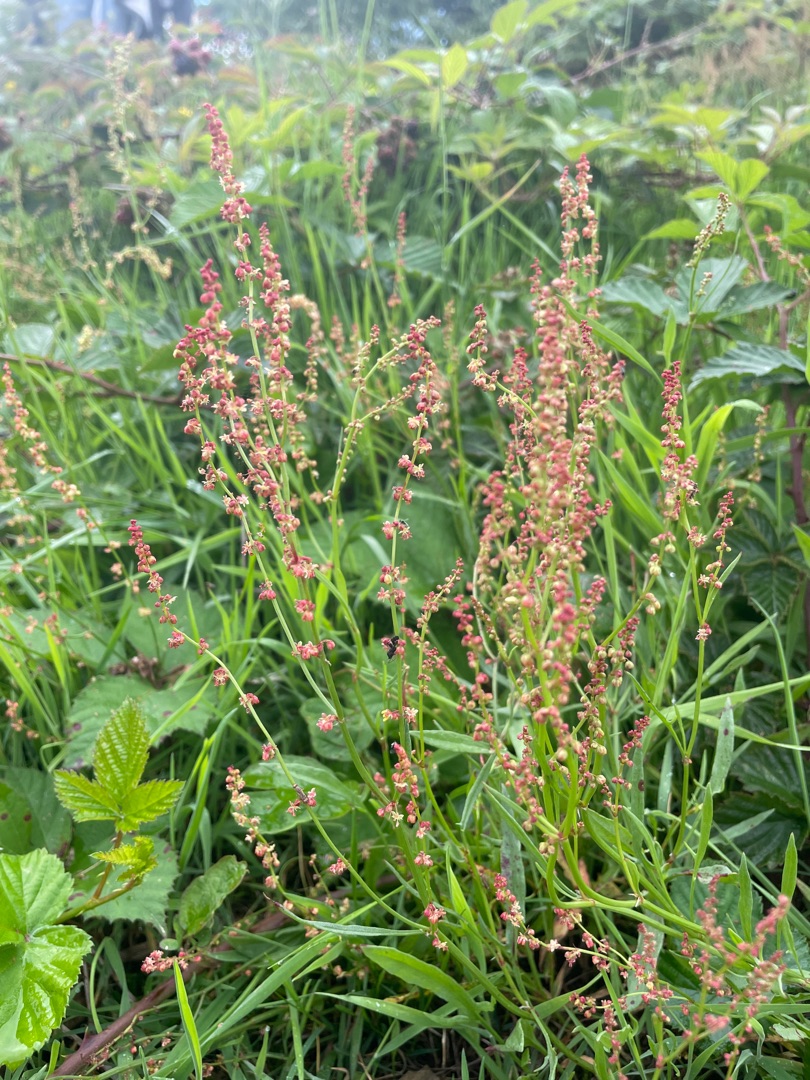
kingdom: Plantae
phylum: Tracheophyta
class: Magnoliopsida
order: Caryophyllales
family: Polygonaceae
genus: Rumex
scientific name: Rumex acetosella
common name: Rødknæ
